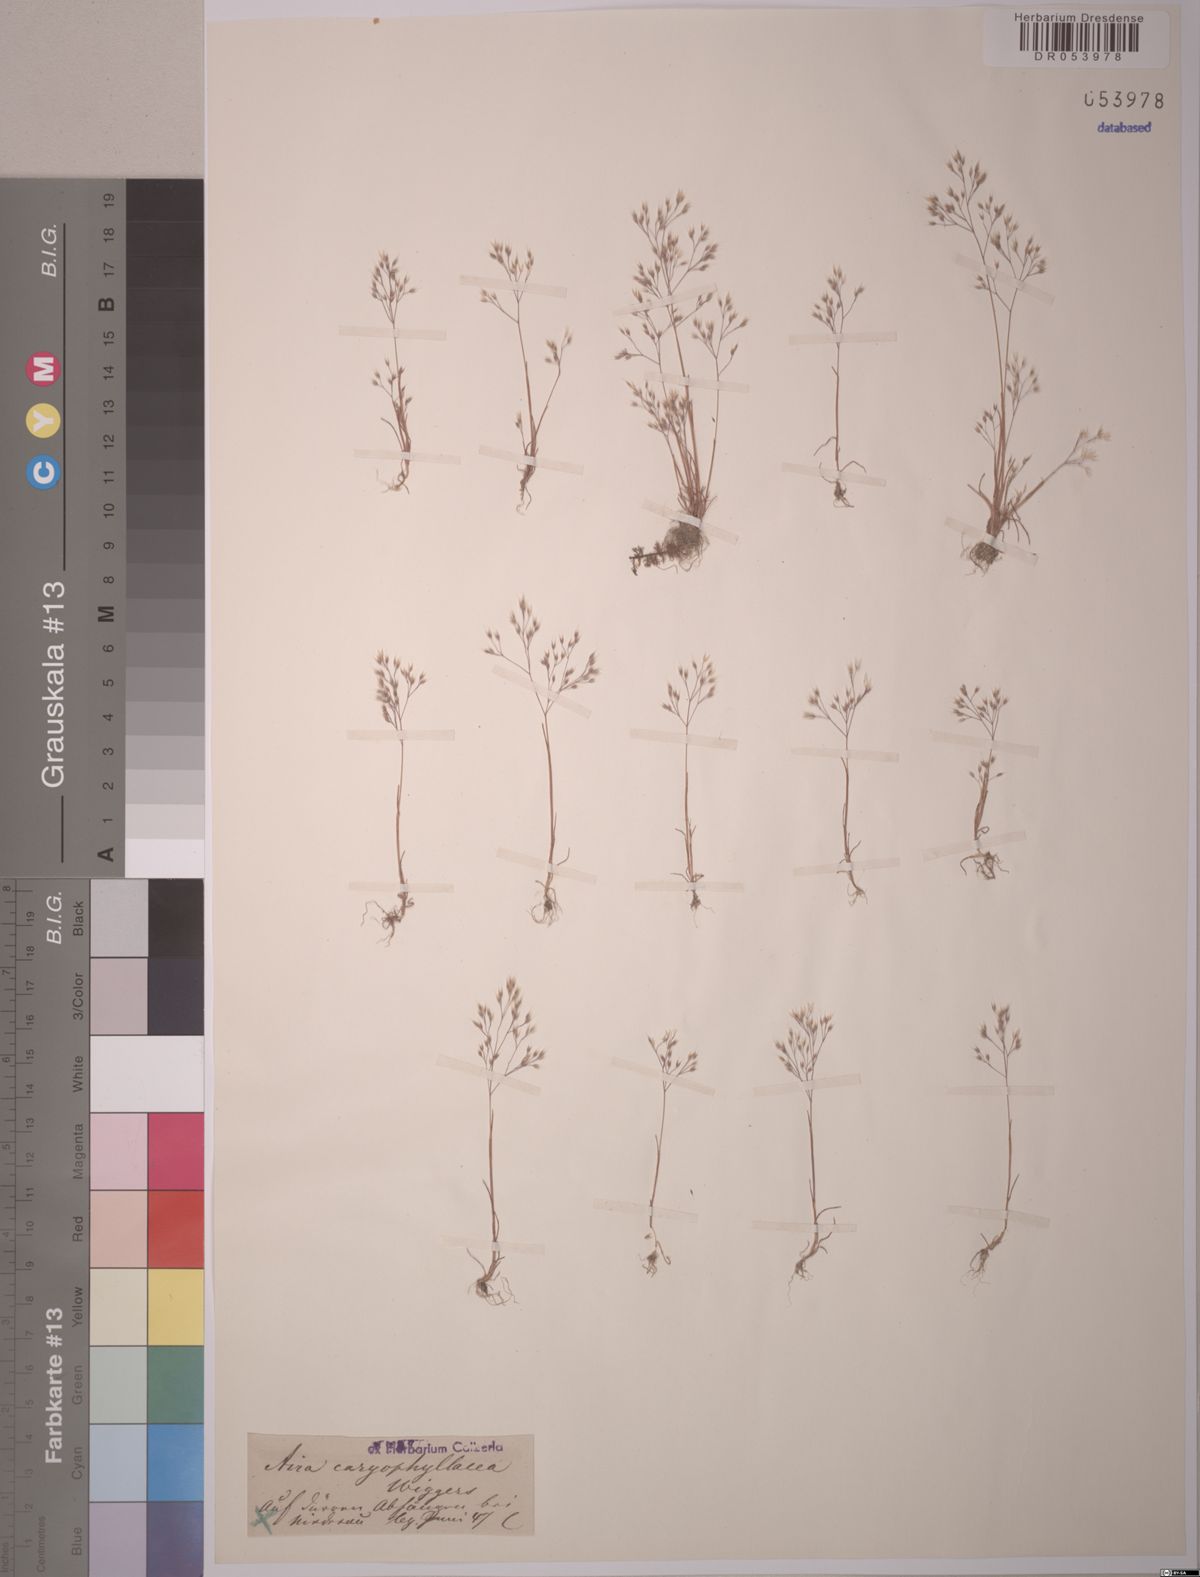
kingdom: Plantae
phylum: Tracheophyta
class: Liliopsida
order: Poales
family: Poaceae
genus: Aira
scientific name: Aira caryophyllea
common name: Silver hairgrass
